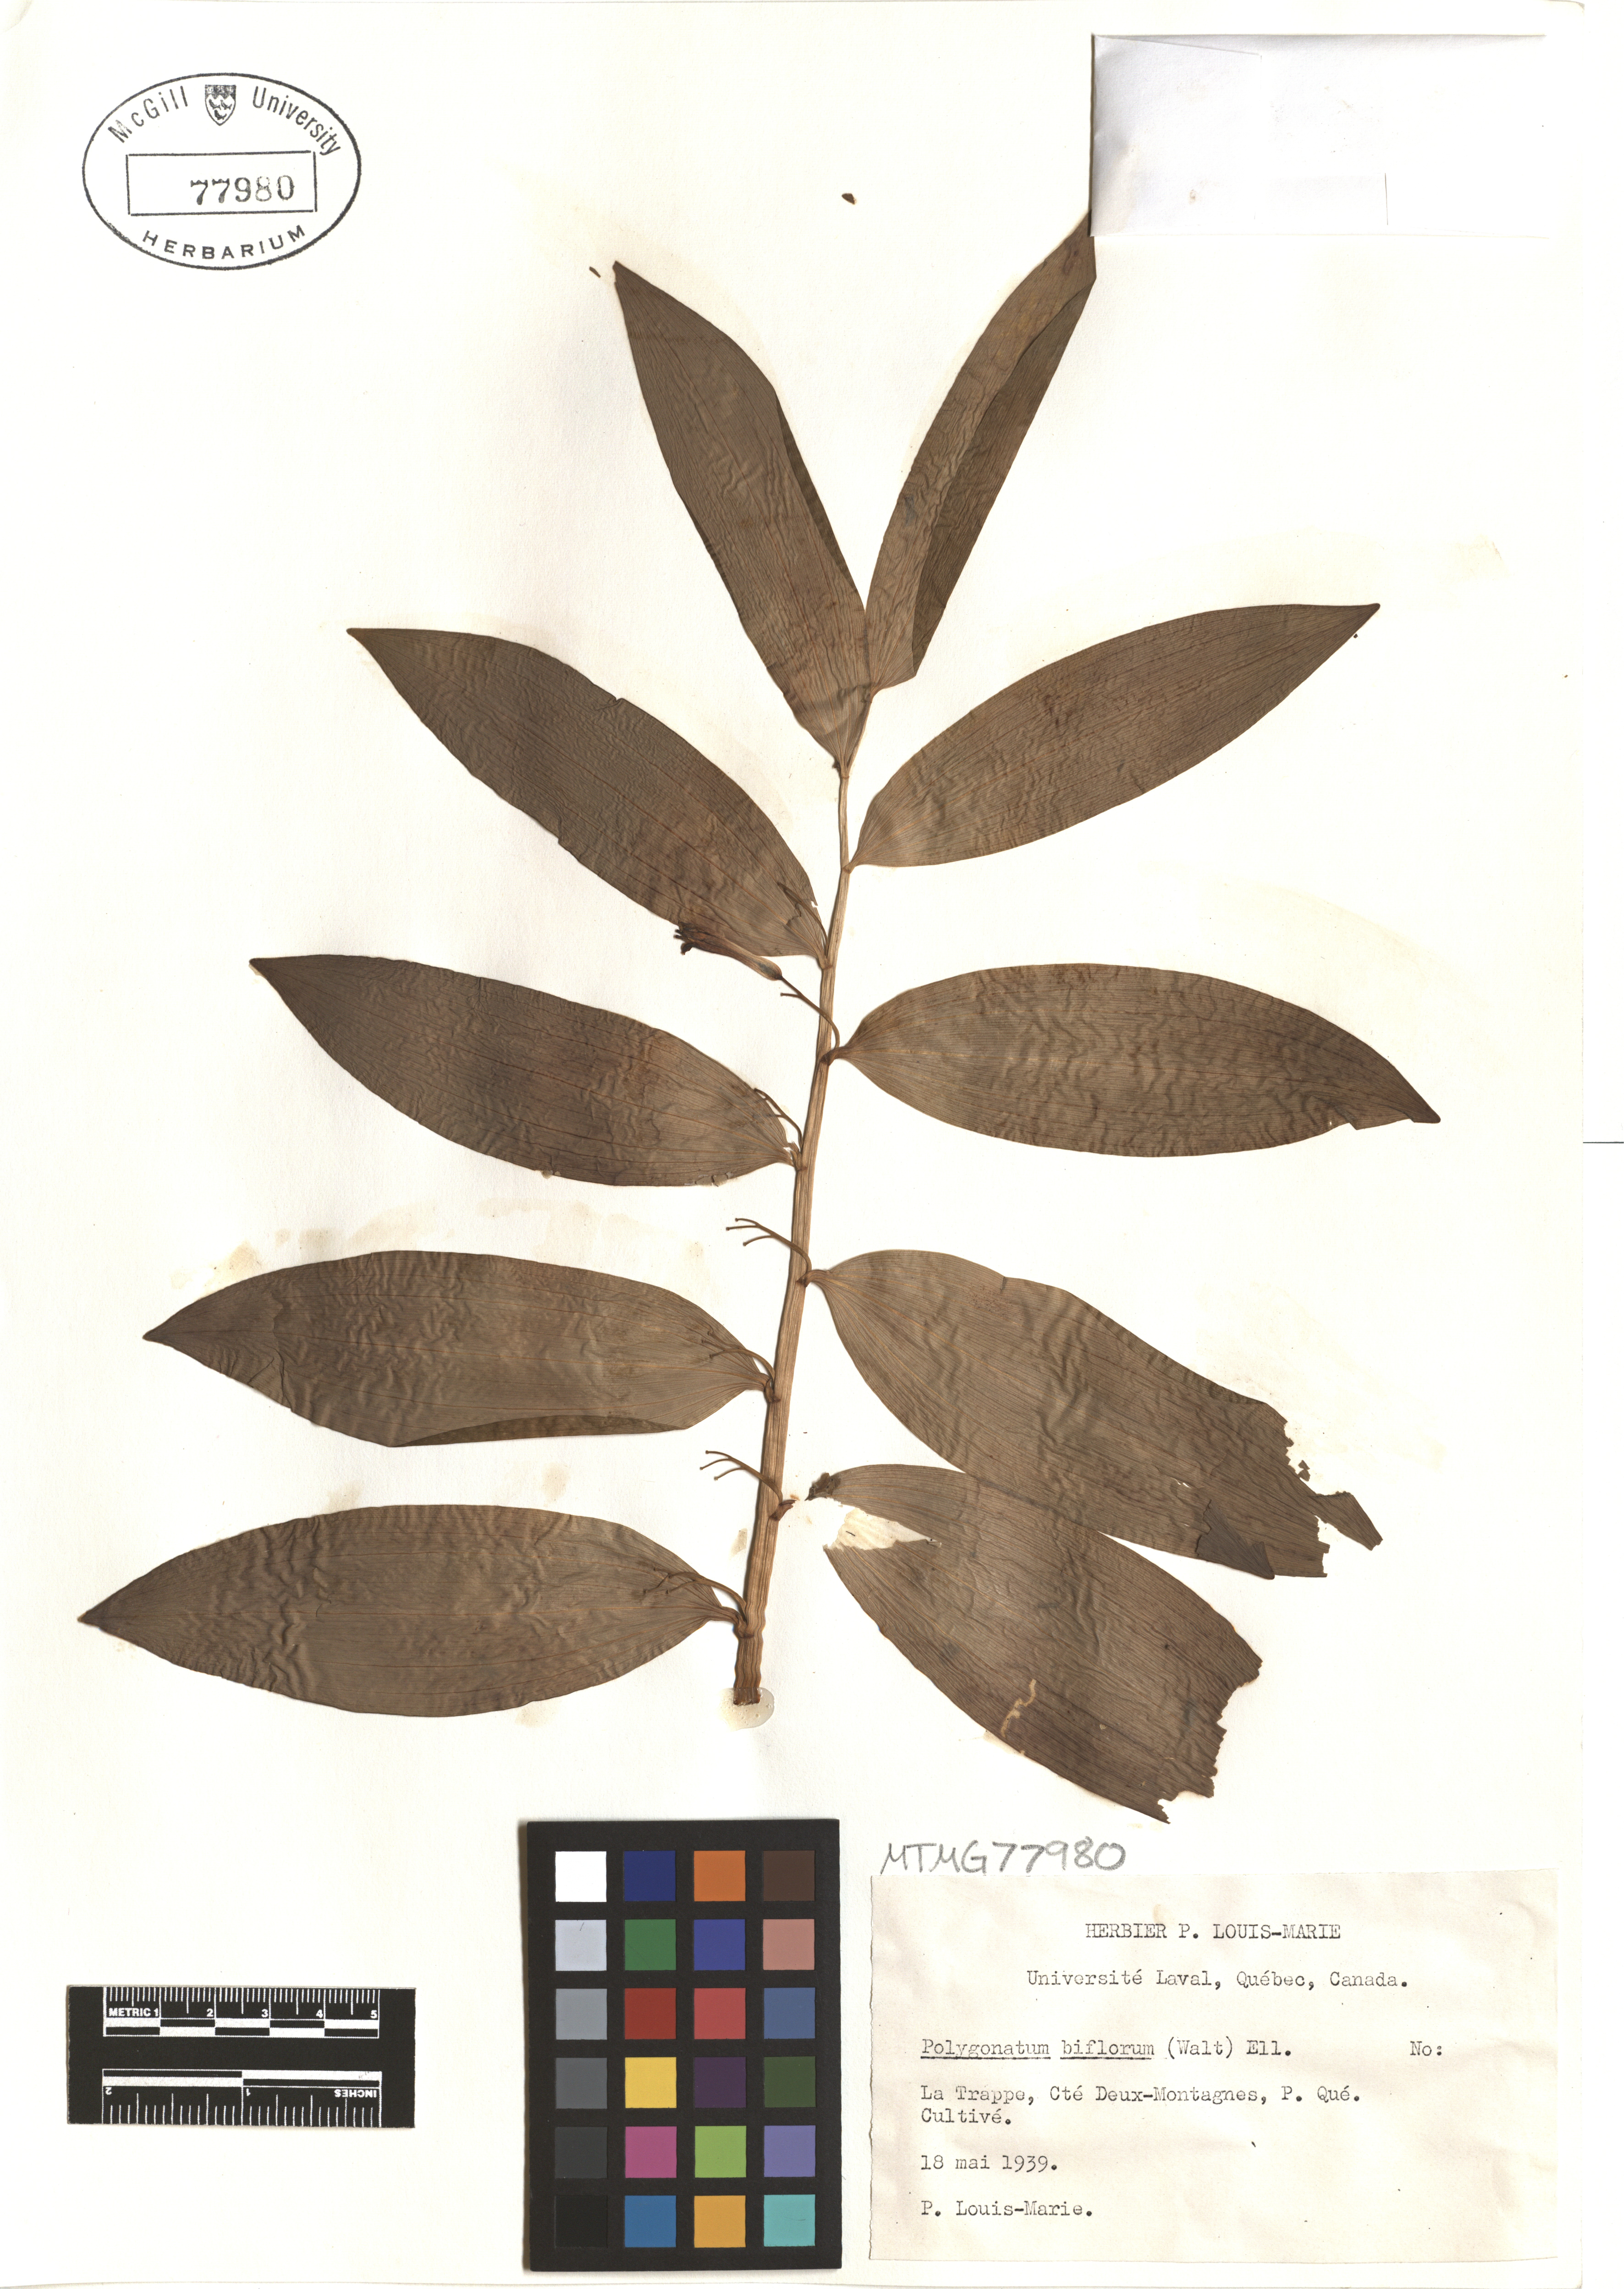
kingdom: Plantae
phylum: Tracheophyta
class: Liliopsida
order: Asparagales
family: Asparagaceae
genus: Polygonatum
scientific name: Polygonatum biflorum
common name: American solomon's-seal
